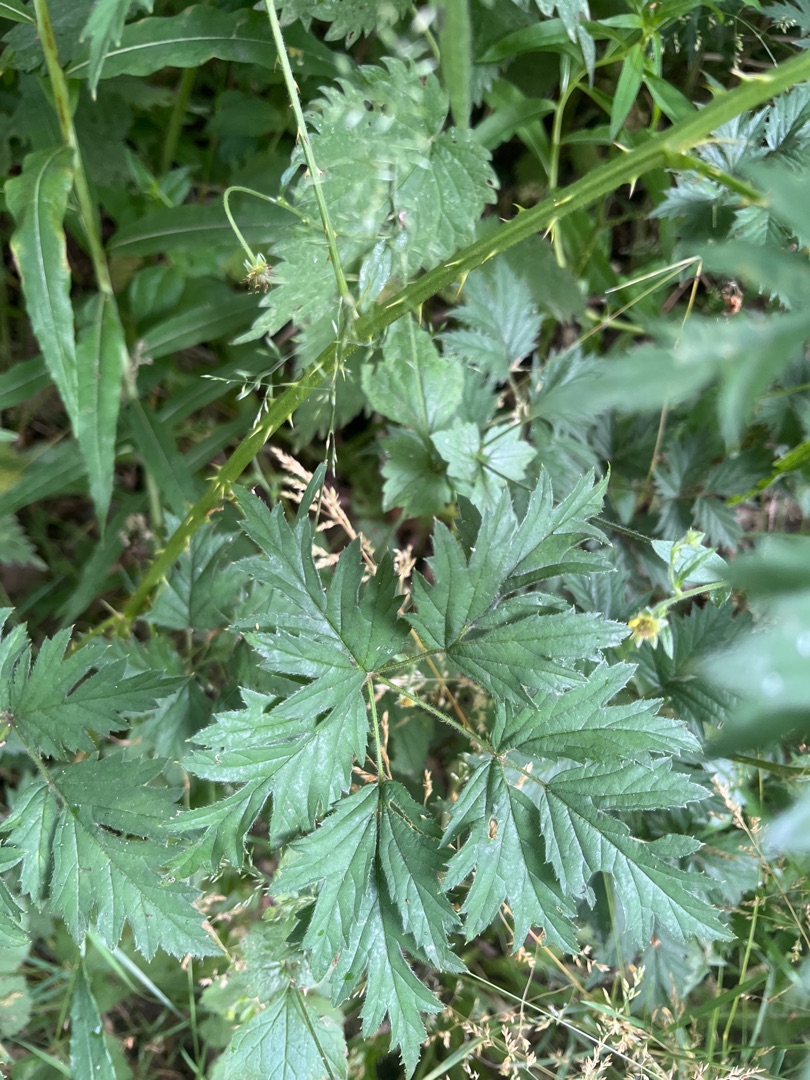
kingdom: Plantae
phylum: Tracheophyta
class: Magnoliopsida
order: Rosales
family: Rosaceae
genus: Rubus
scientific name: Rubus laciniatus
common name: Fliget brombær
